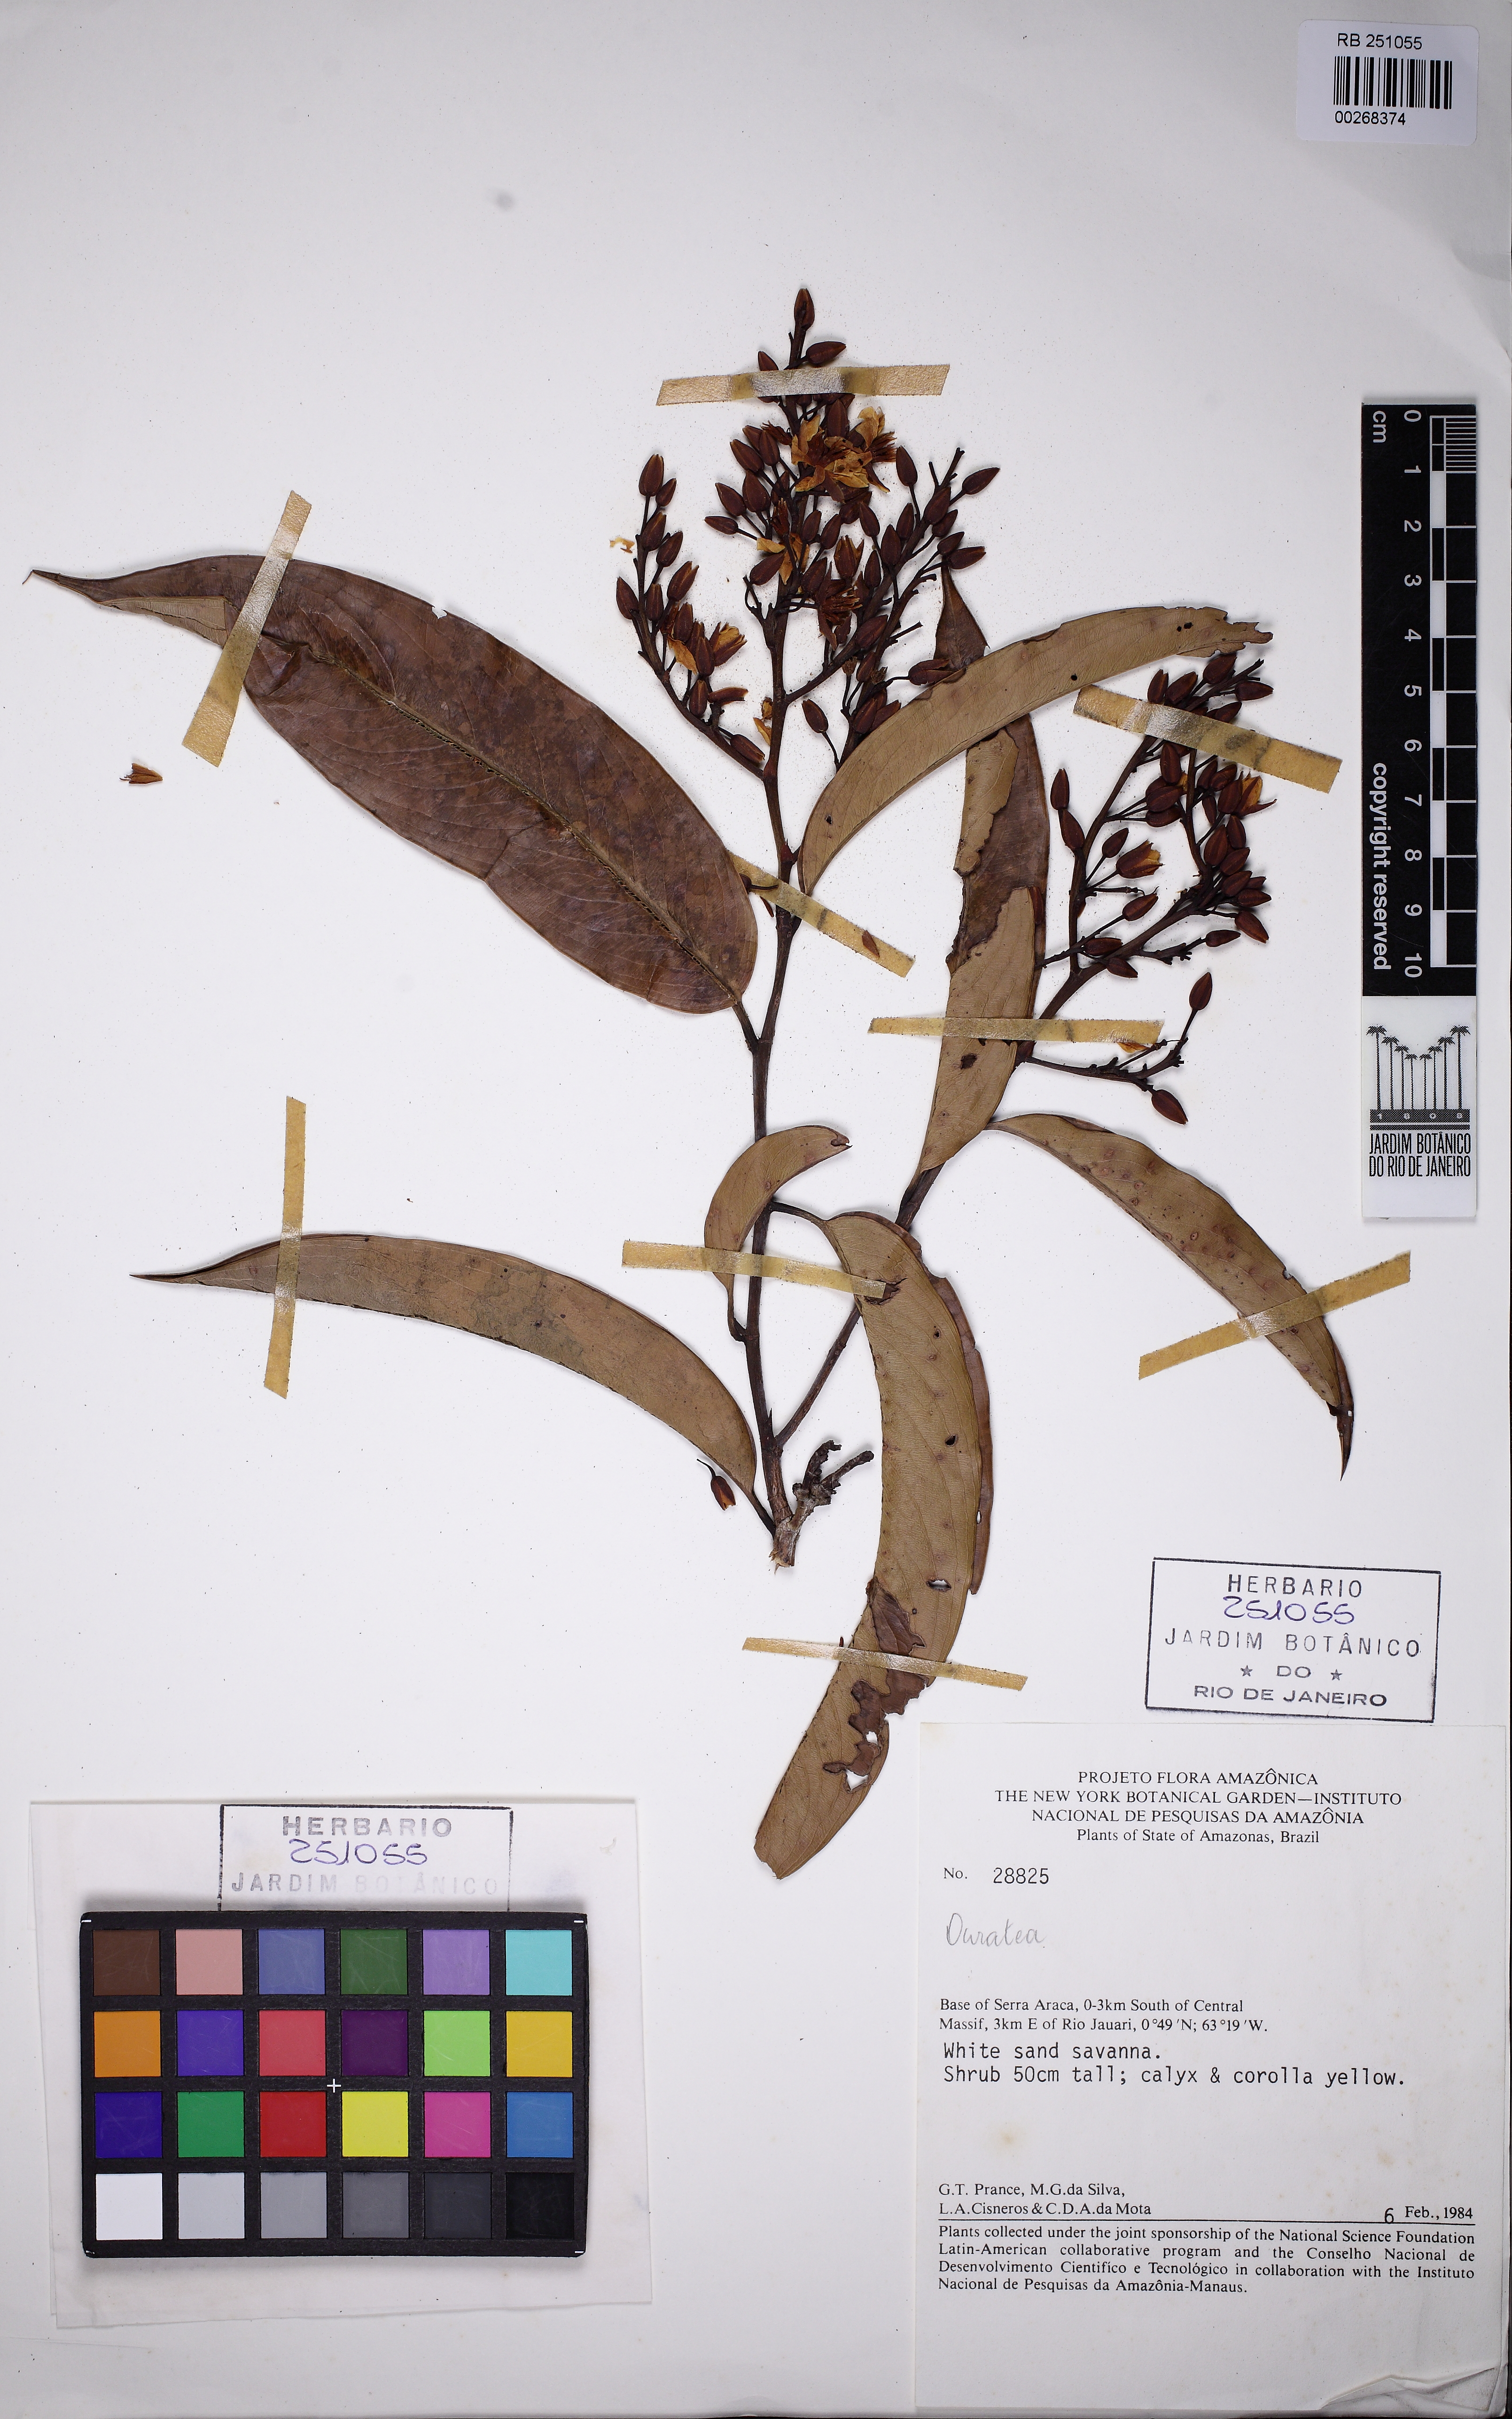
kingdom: Plantae
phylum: Tracheophyta
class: Magnoliopsida
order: Malpighiales
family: Ochnaceae
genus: Ouratea
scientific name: Ouratea
